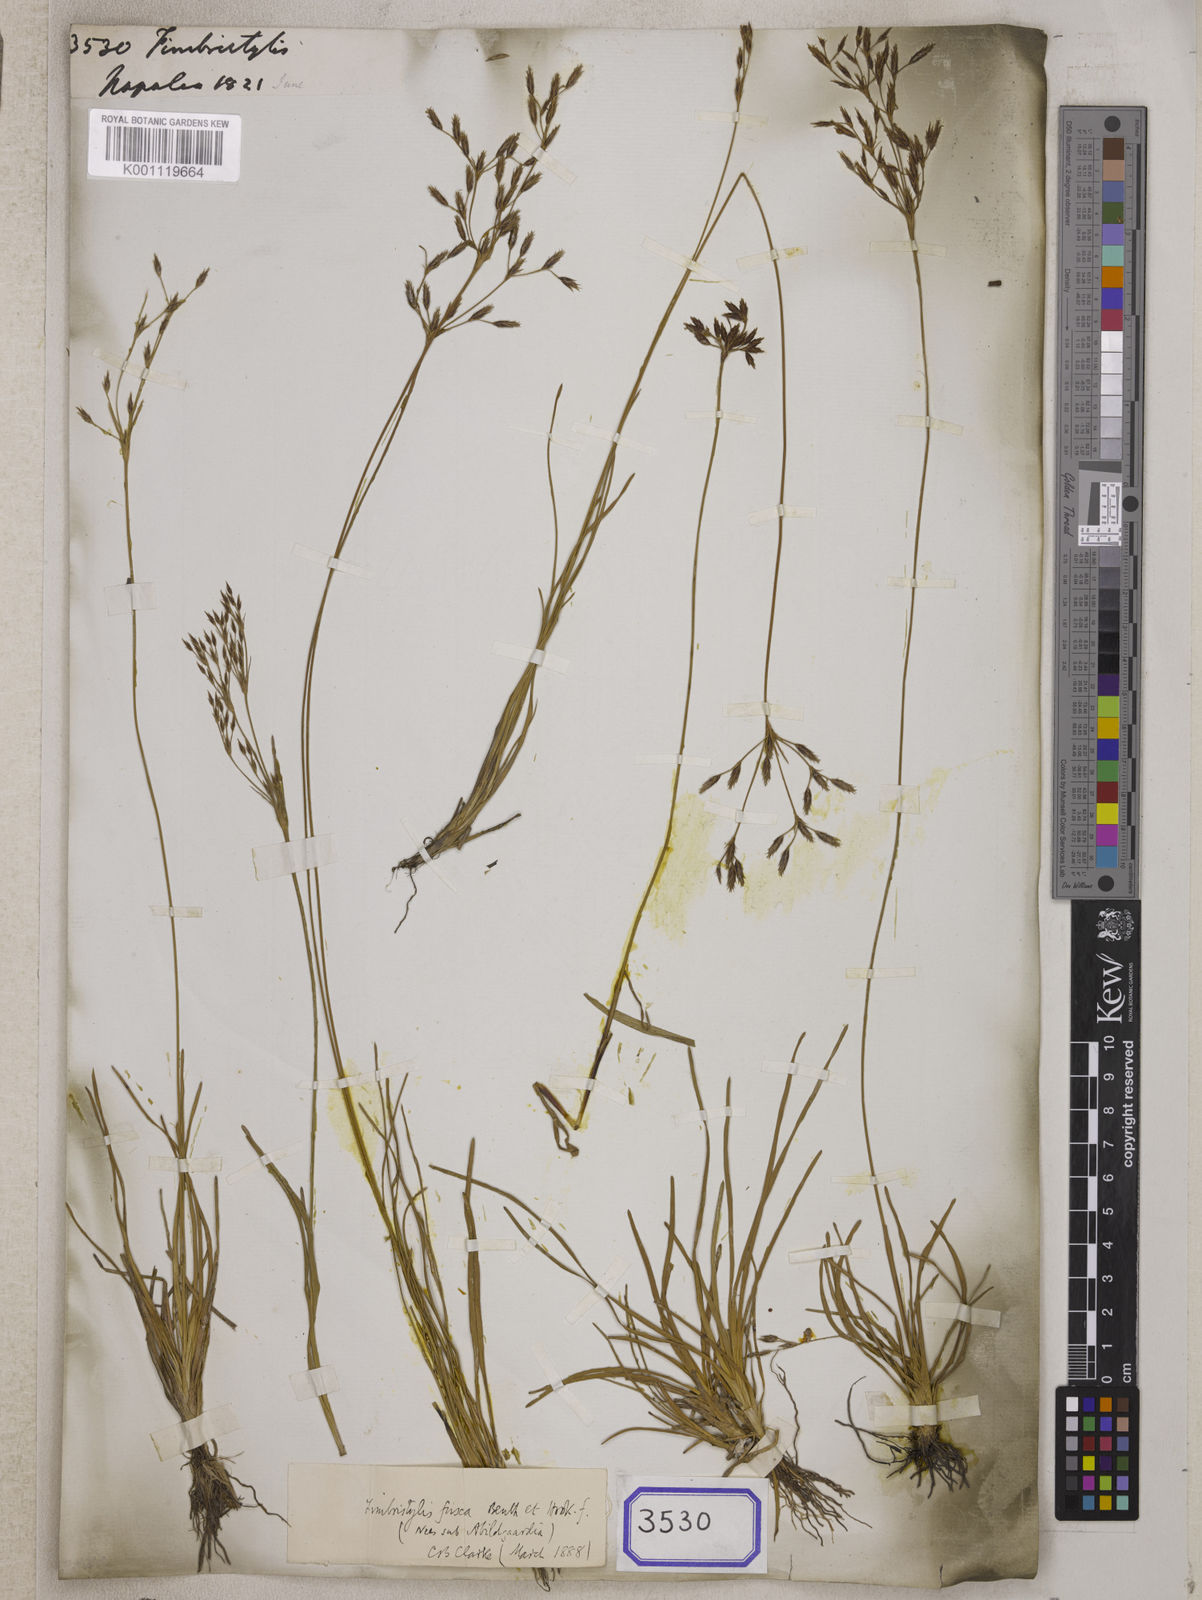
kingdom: Plantae
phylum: Tracheophyta
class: Liliopsida
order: Poales
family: Cyperaceae
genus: Fimbristylis
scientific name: Fimbristylis
